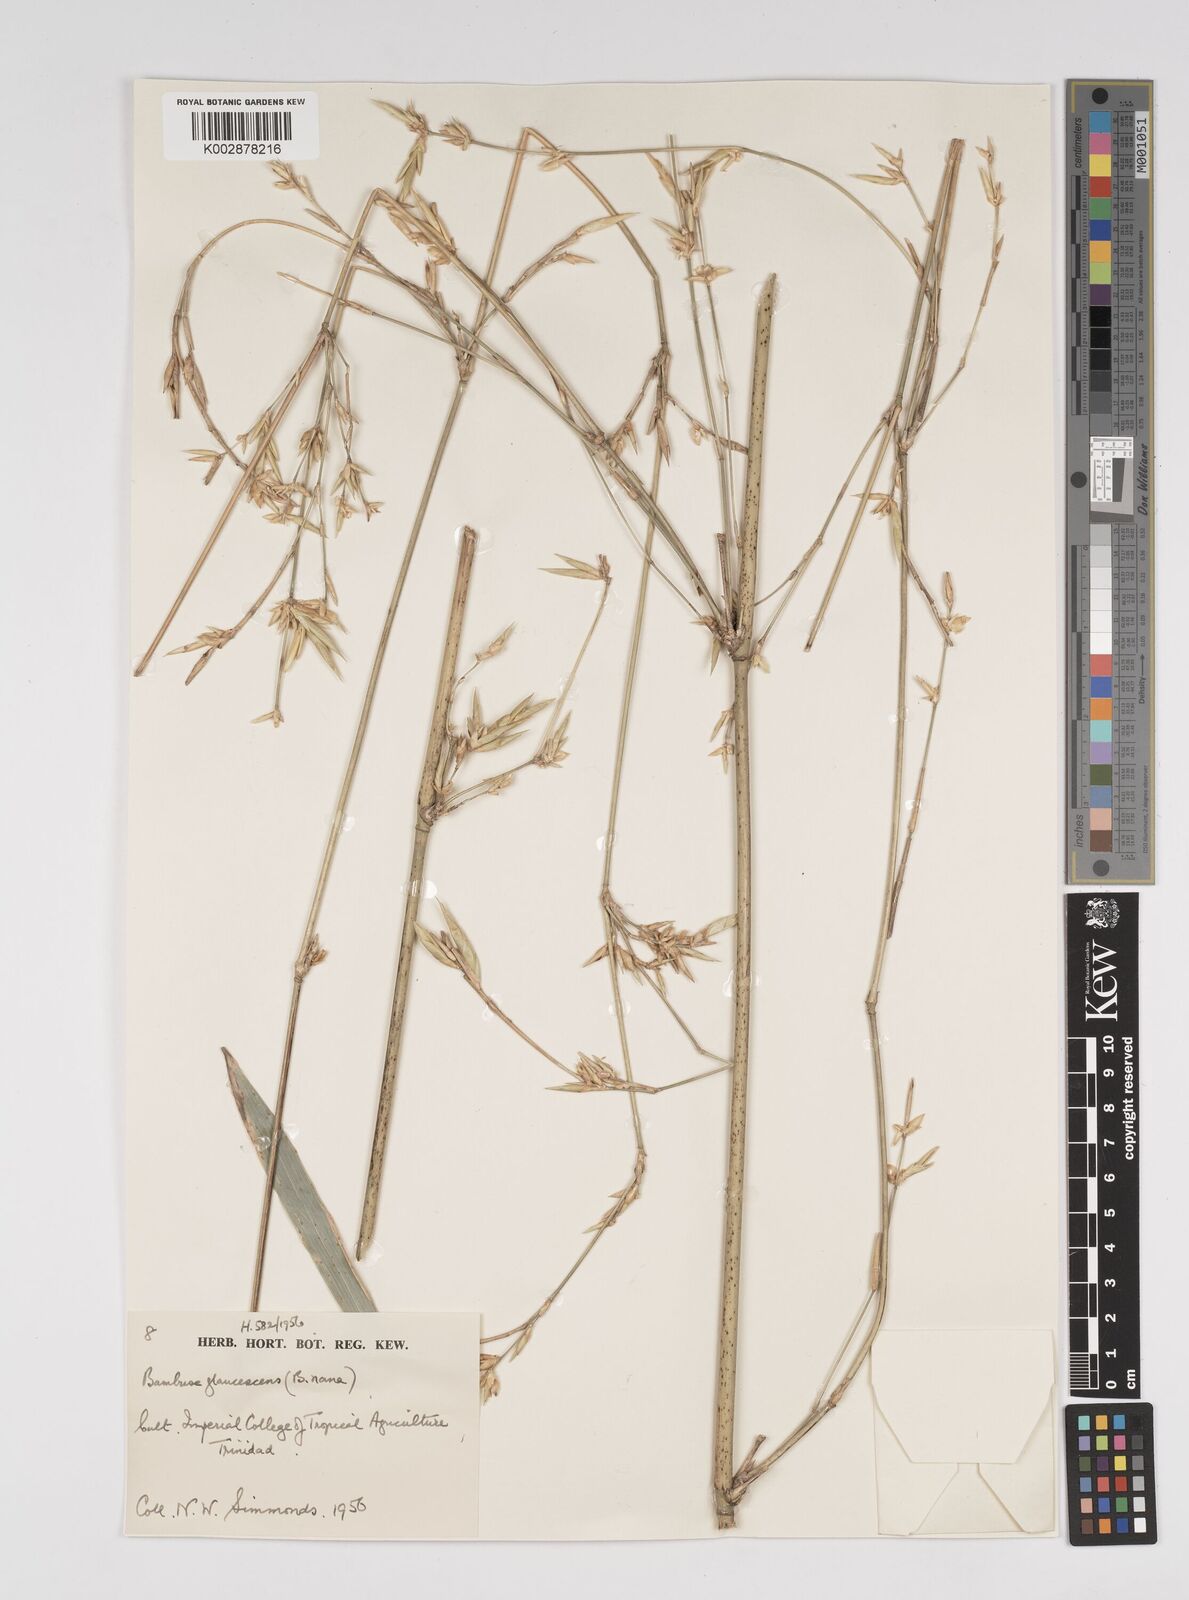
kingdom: Plantae
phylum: Tracheophyta
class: Liliopsida
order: Poales
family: Poaceae
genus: Bambusa
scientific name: Bambusa multiplex
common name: Hedge bamboo
